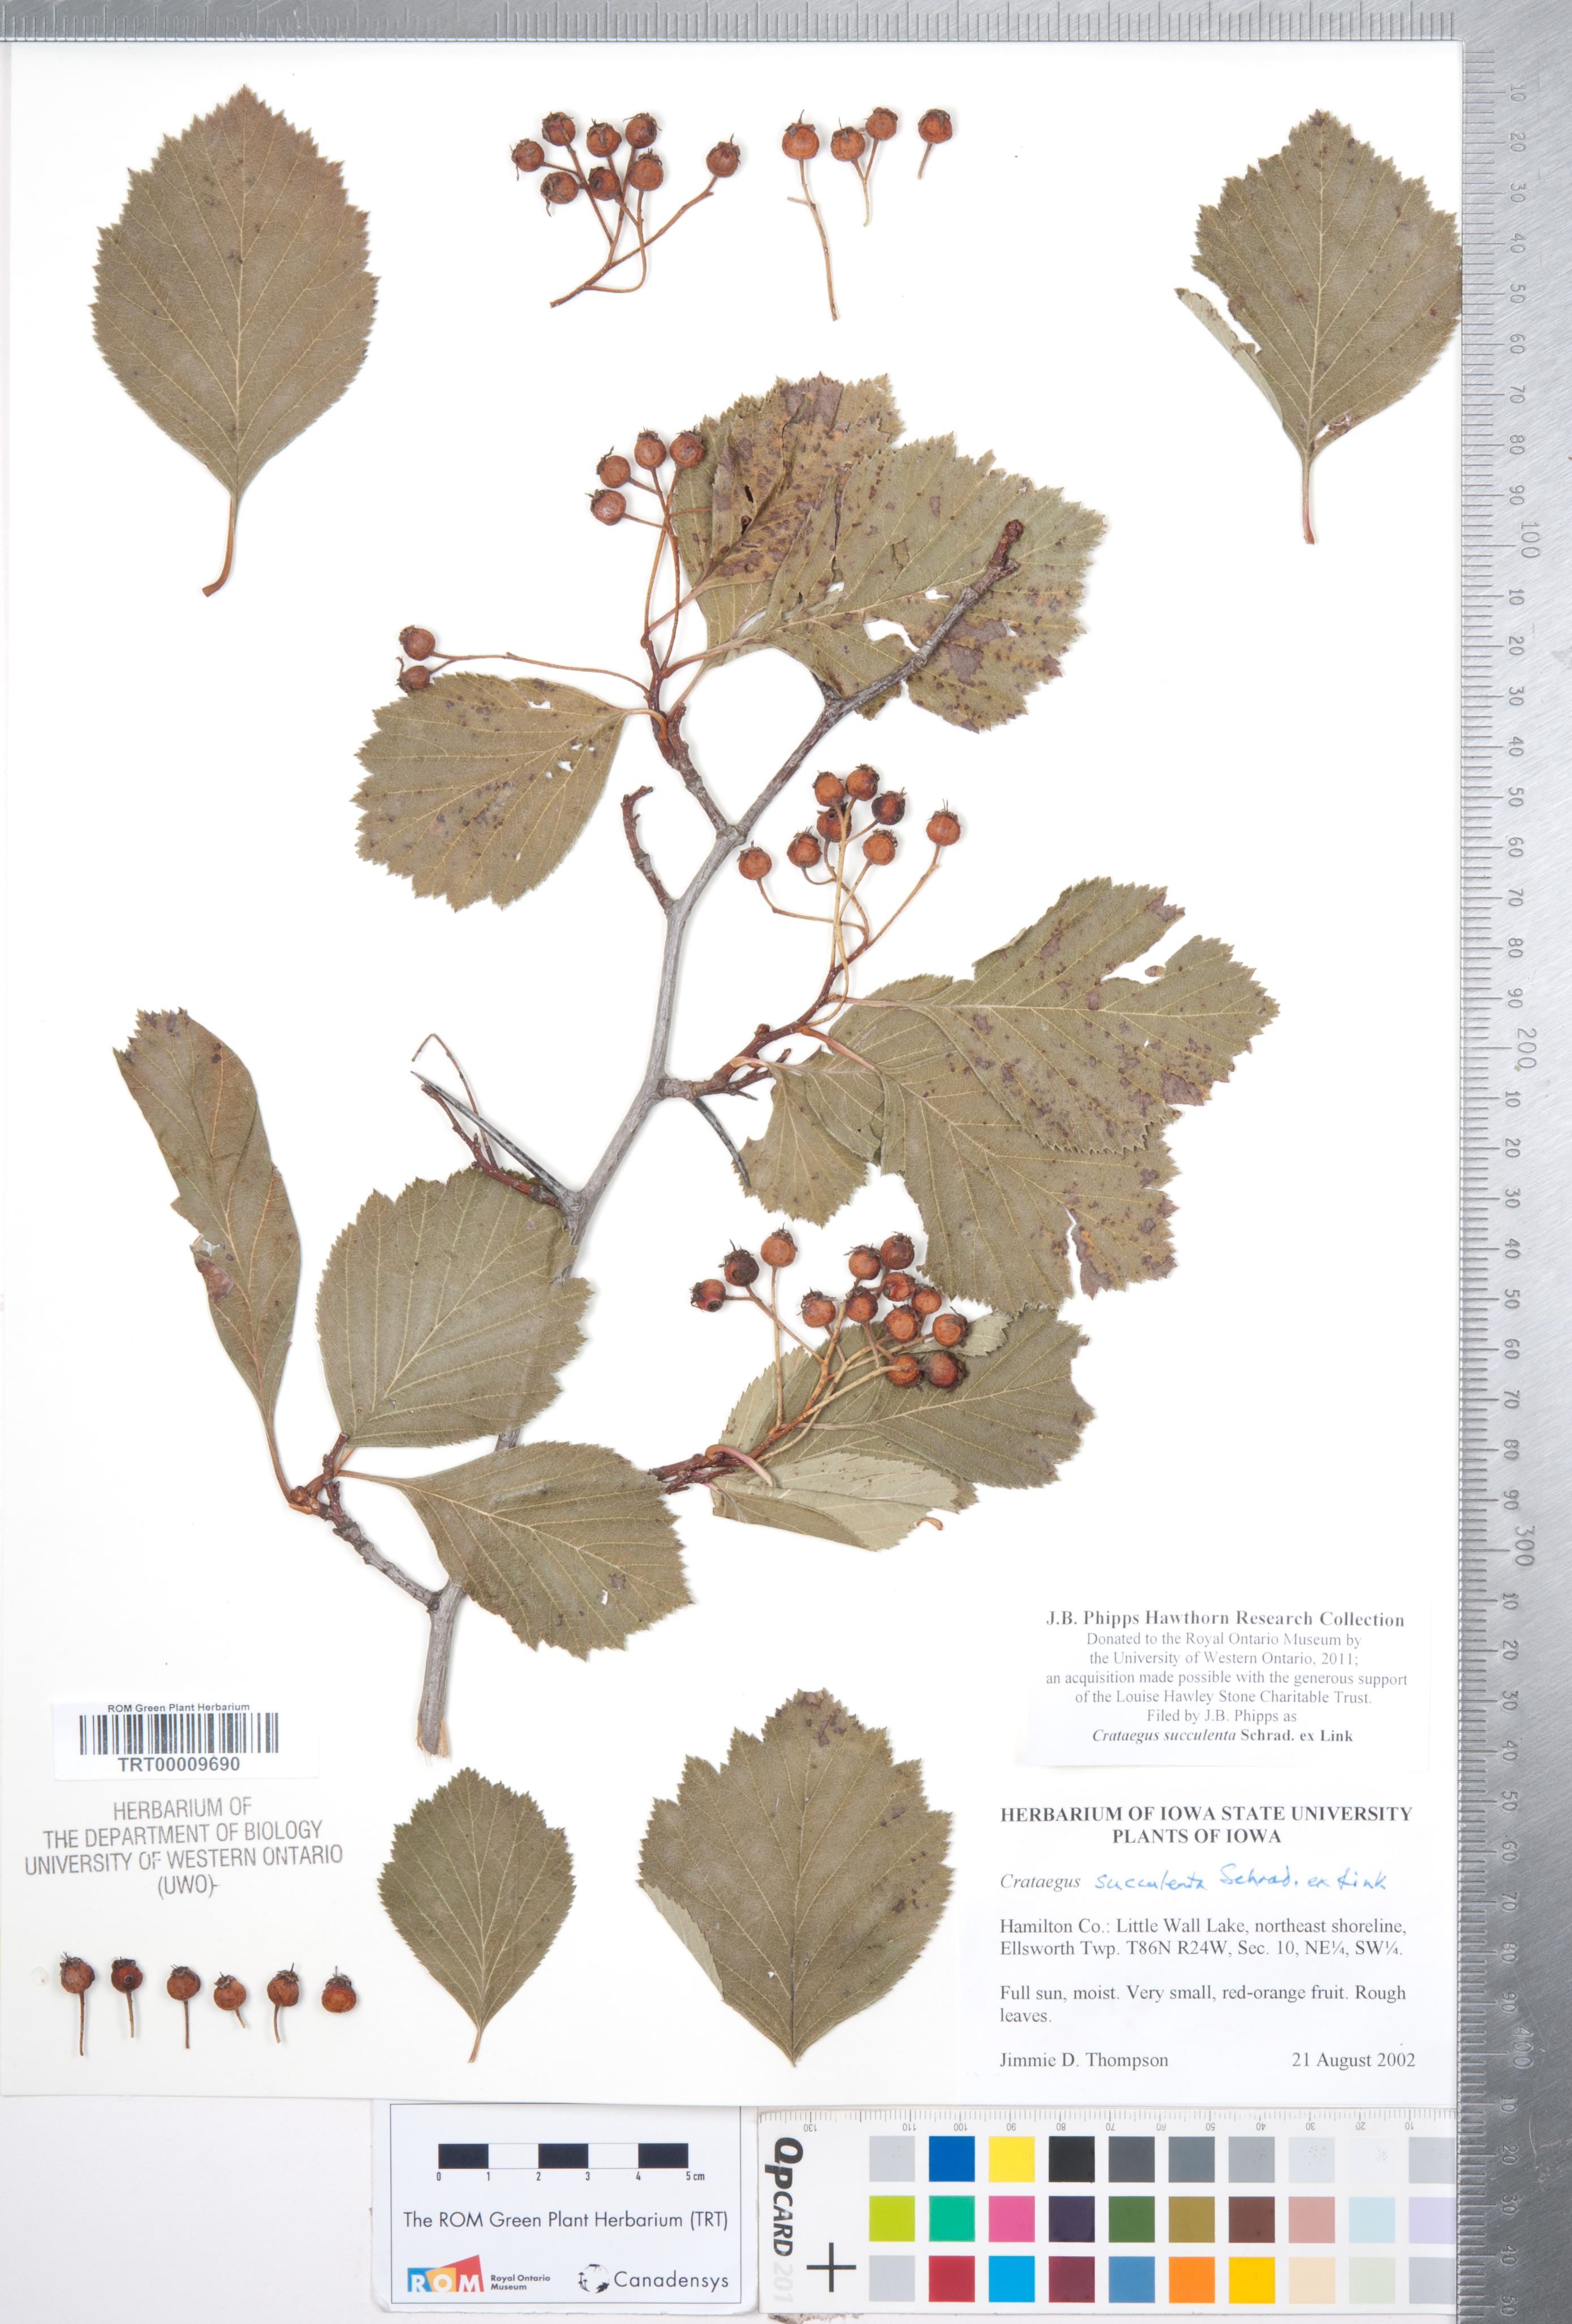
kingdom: Plantae
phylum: Tracheophyta
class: Magnoliopsida
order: Rosales
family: Rosaceae
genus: Crataegus
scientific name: Crataegus succulenta
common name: Fleshy hawthorn
